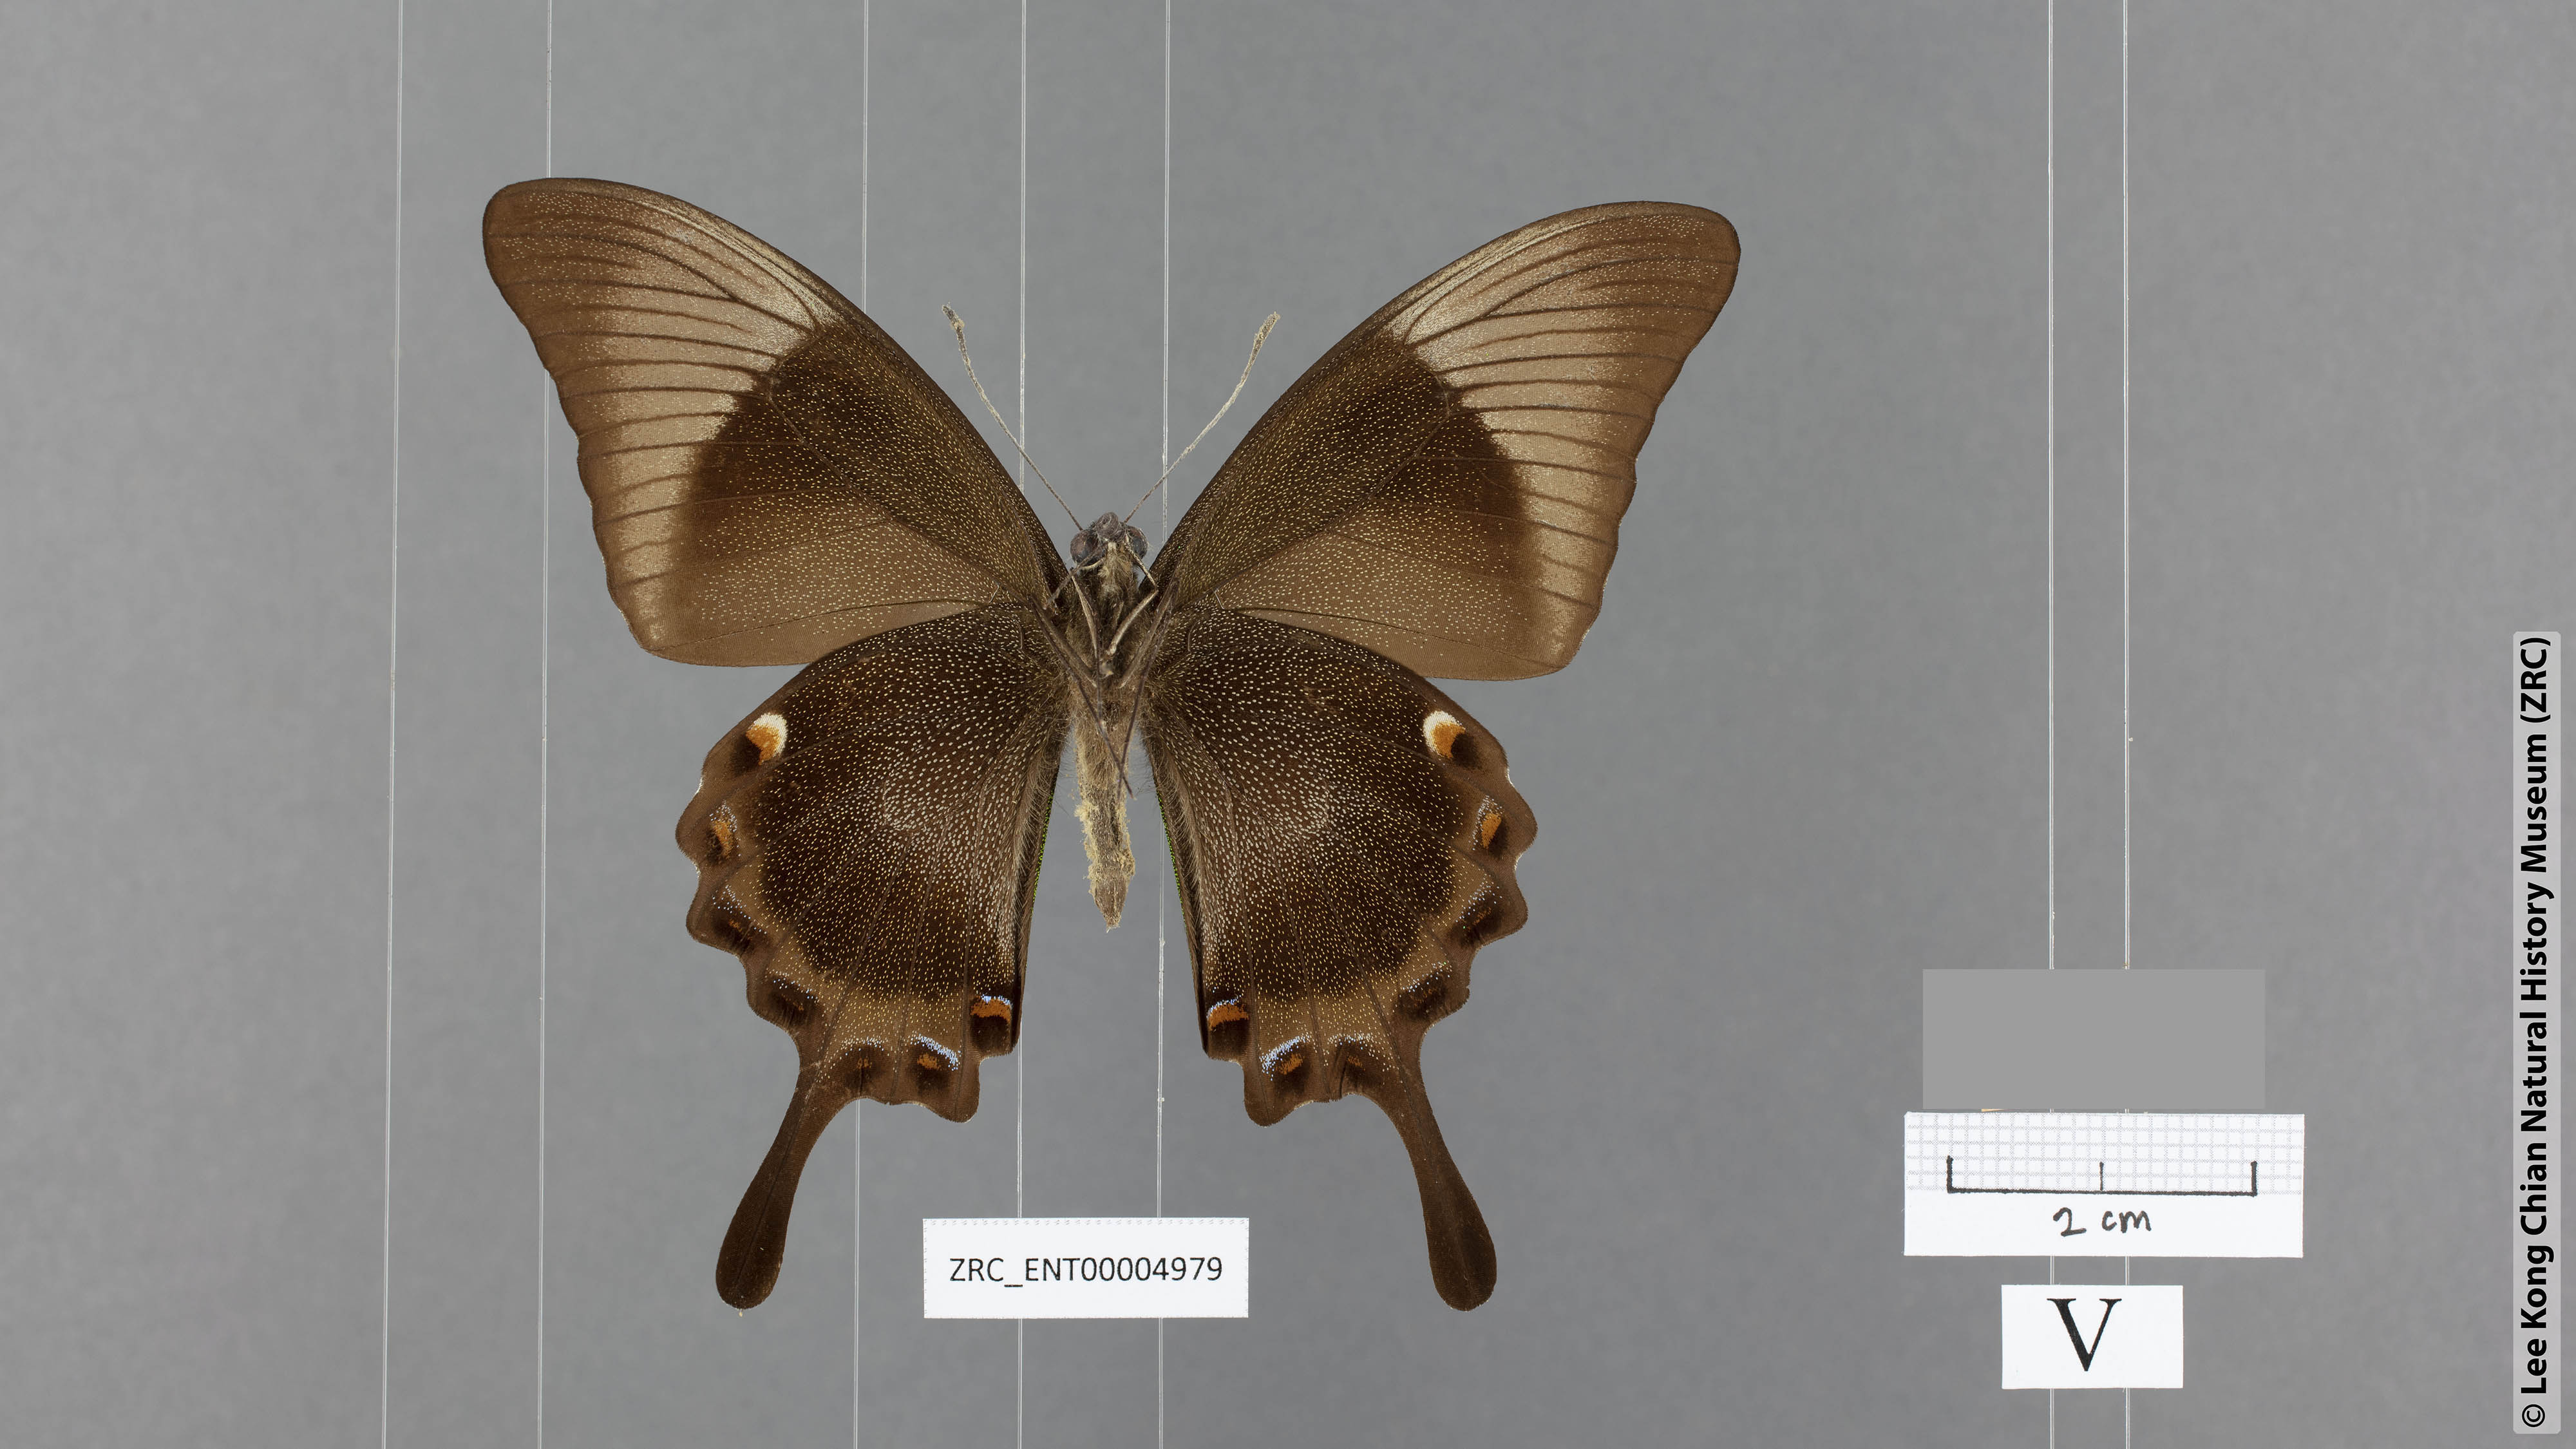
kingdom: Animalia
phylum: Arthropoda
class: Insecta
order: Lepidoptera
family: Papilionidae
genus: Papilio
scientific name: Papilio palinurus
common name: Banded peacock
